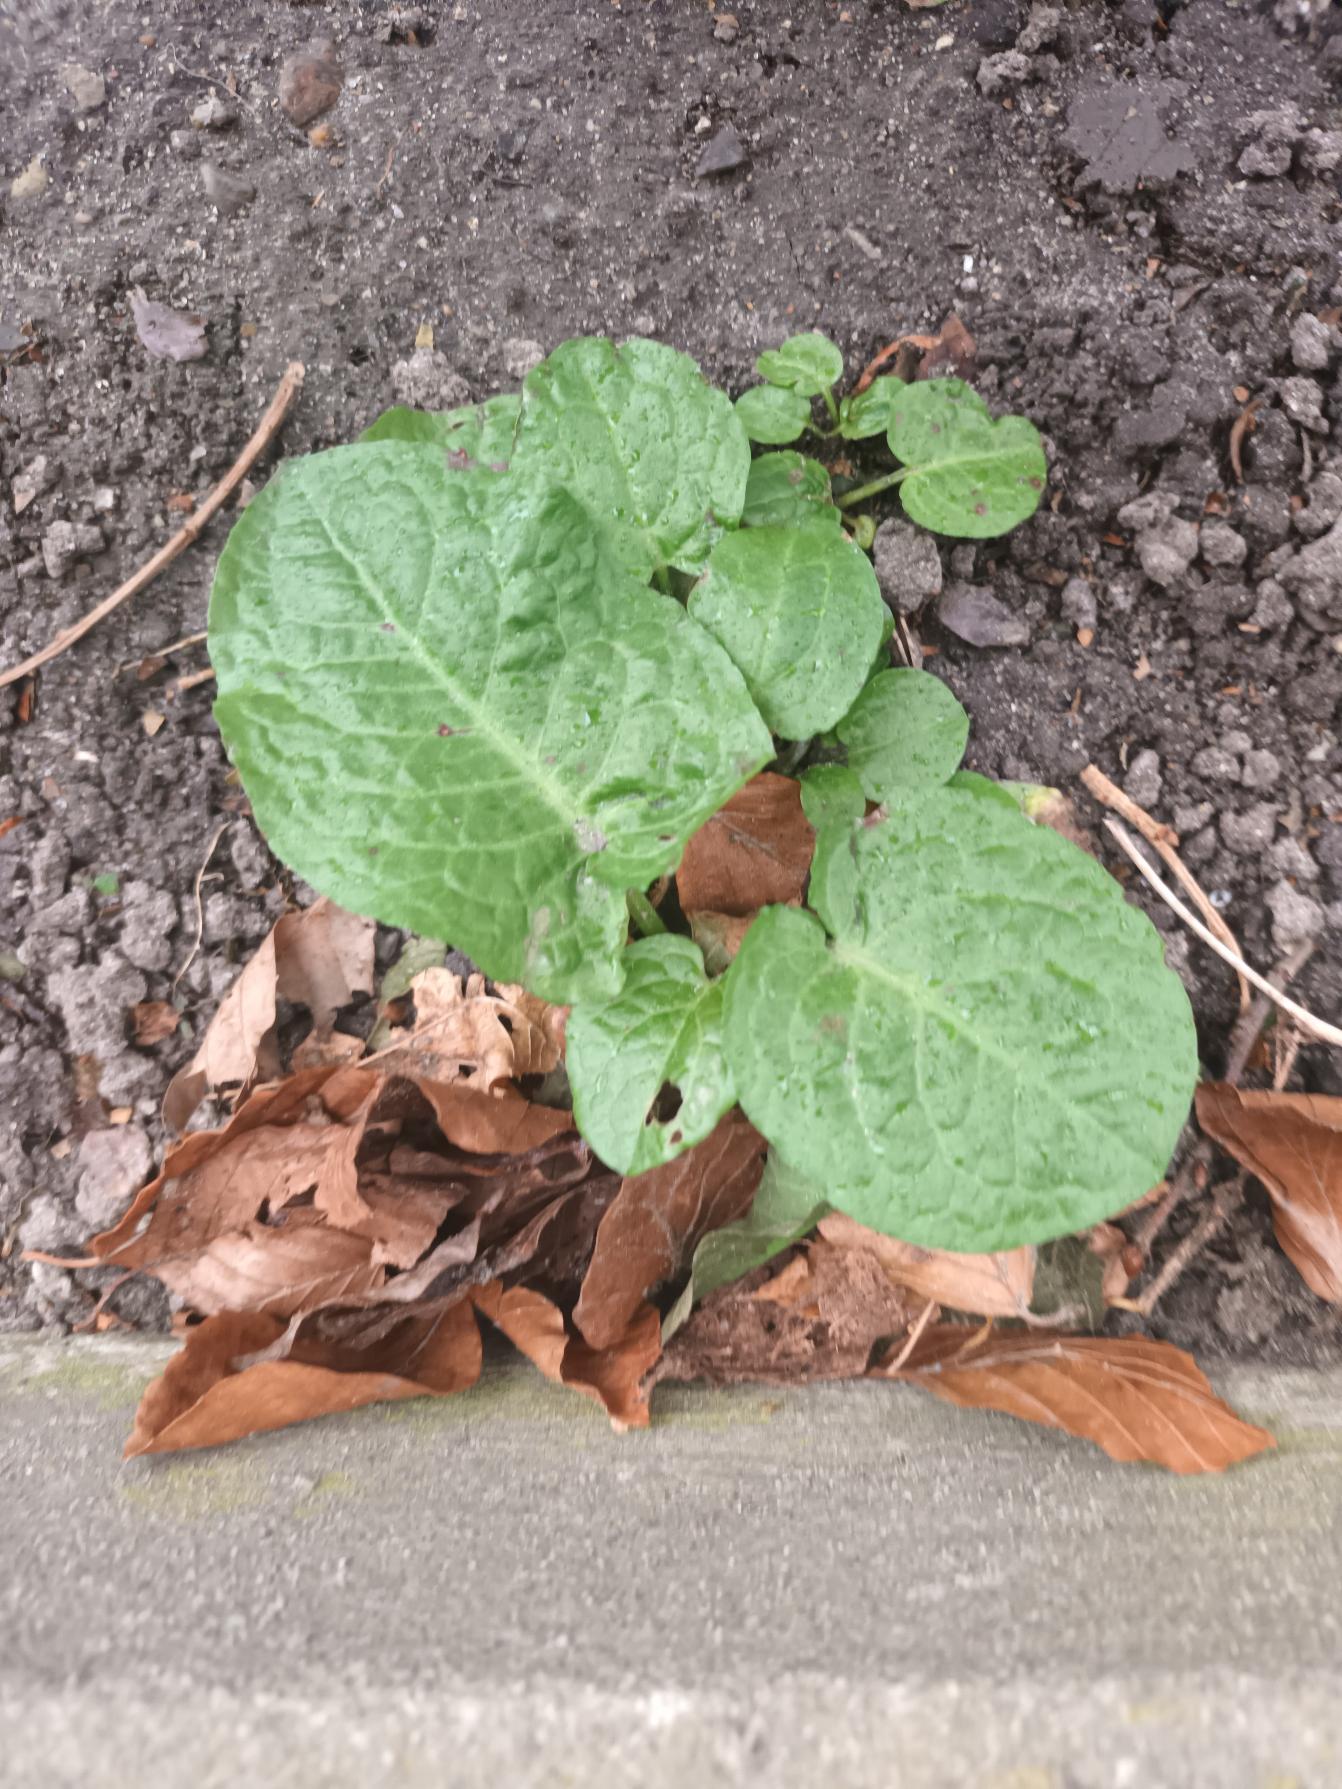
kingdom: Plantae
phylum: Tracheophyta
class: Magnoliopsida
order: Caryophyllales
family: Polygonaceae
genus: Rumex
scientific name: Rumex obtusifolius
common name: Butbladet skræppe
